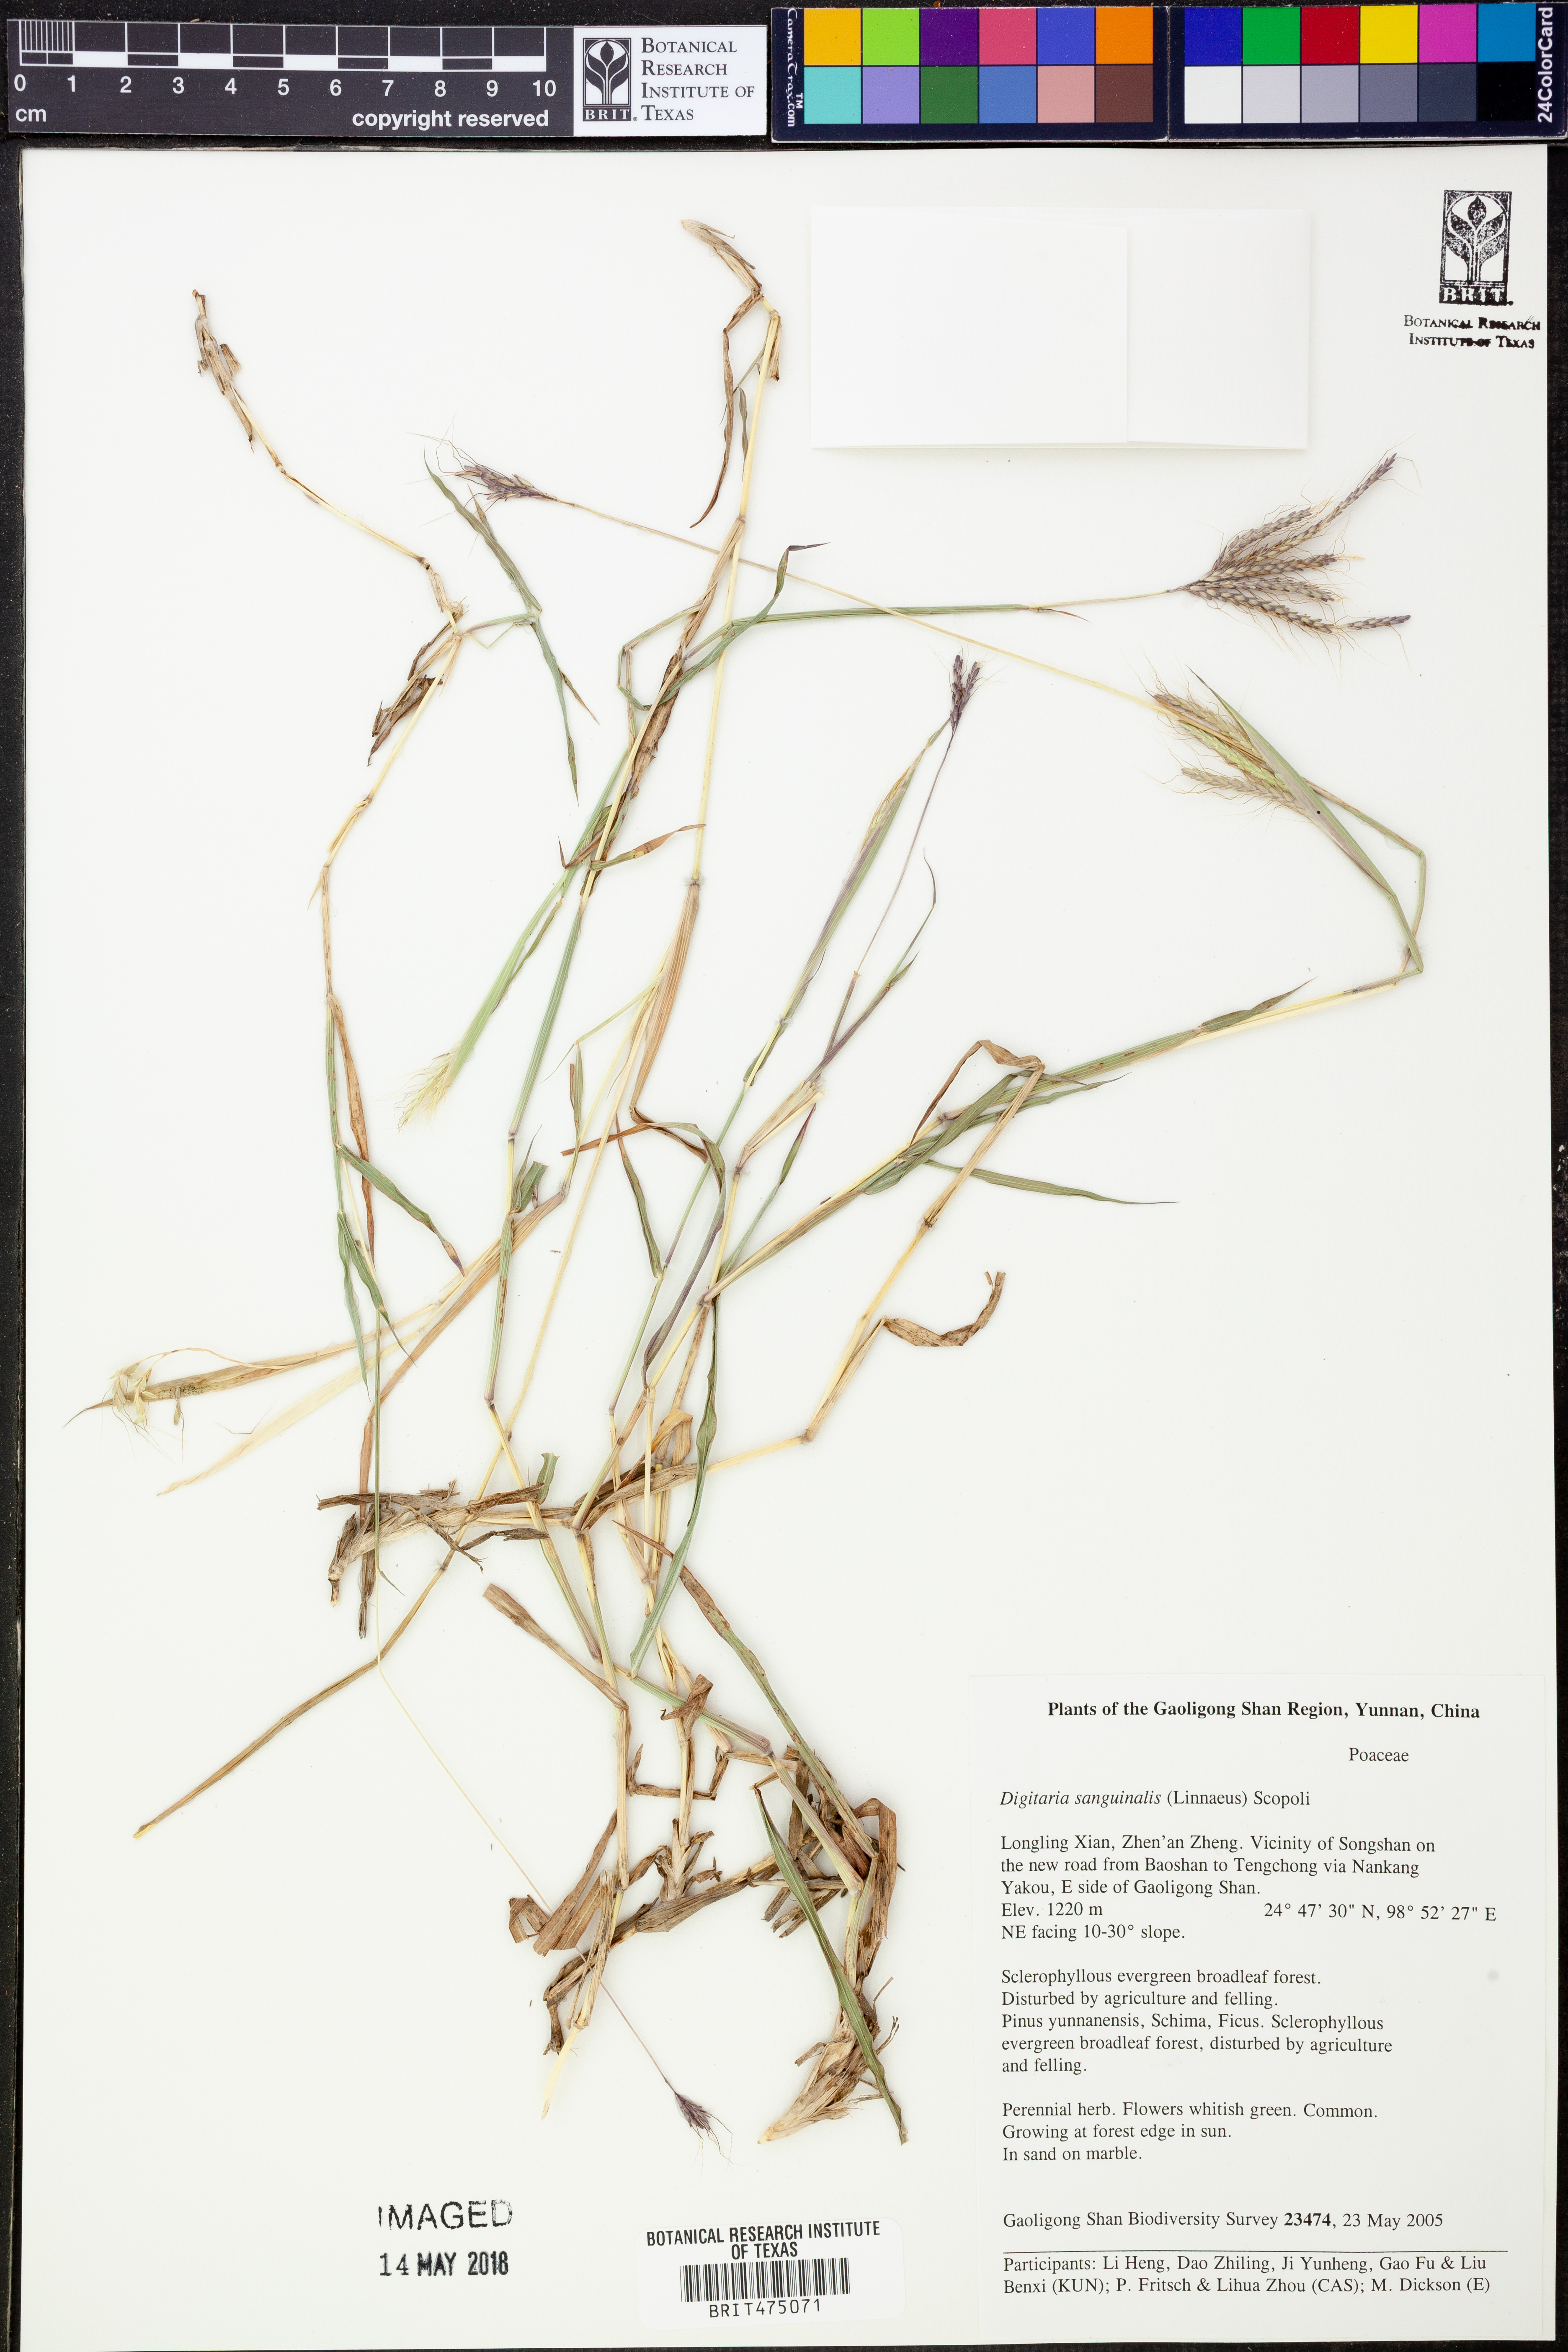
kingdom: Plantae
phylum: Tracheophyta
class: Liliopsida
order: Poales
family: Poaceae
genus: Digitaria
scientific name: Digitaria sanguinalis
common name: Hairy crabgrass
